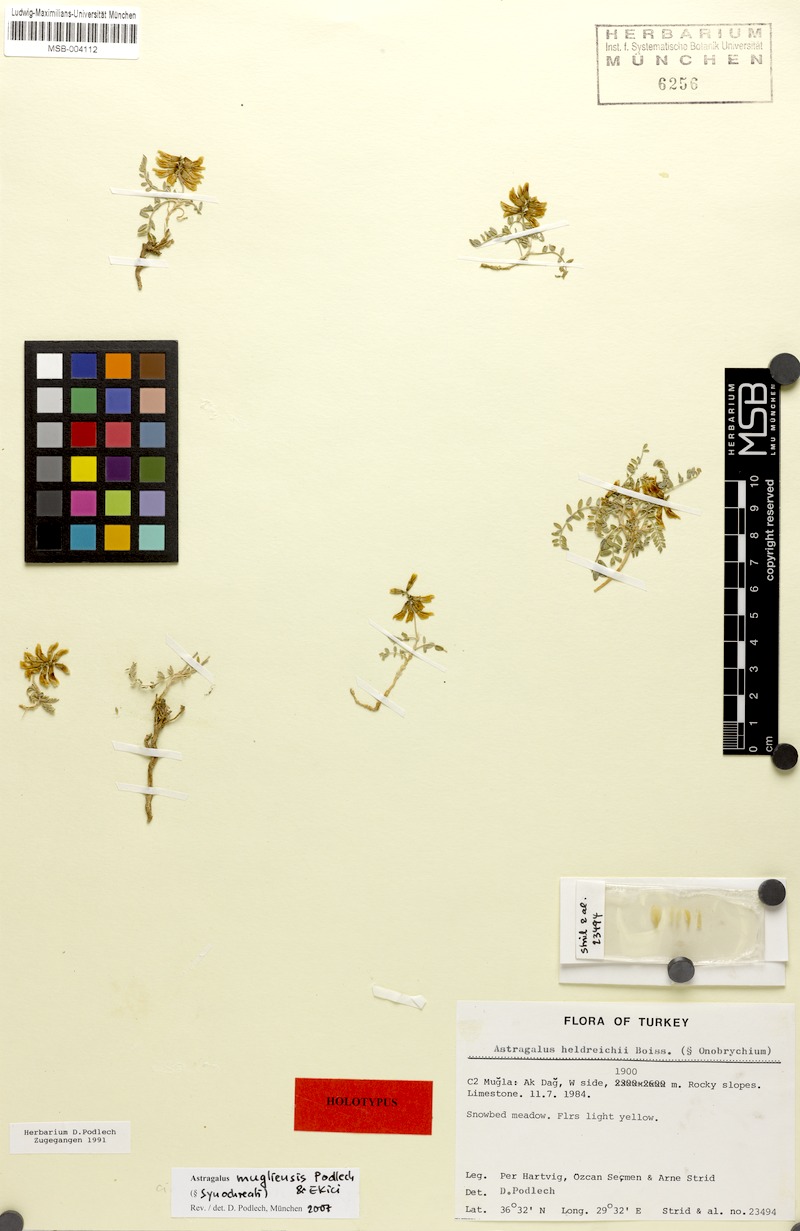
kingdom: Plantae
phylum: Tracheophyta
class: Magnoliopsida
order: Fabales
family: Fabaceae
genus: Astragalus
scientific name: Astragalus mugliensis
